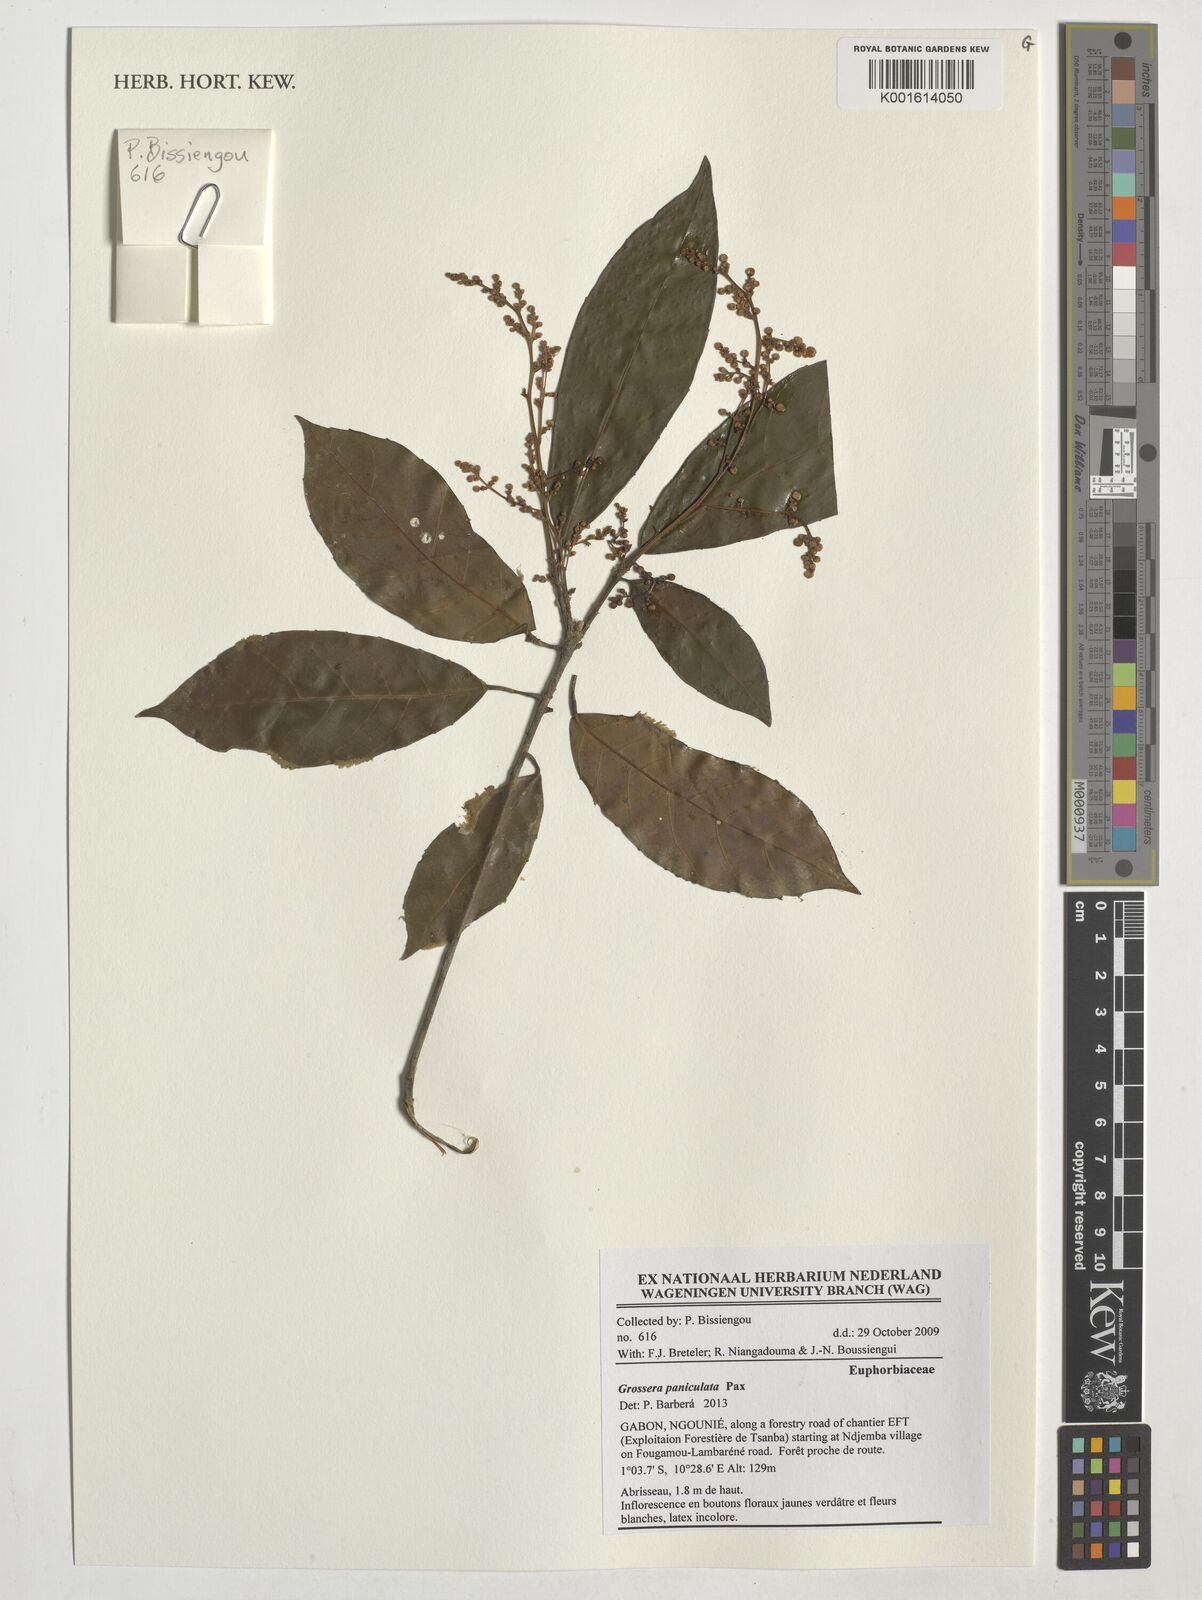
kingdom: Plantae
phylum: Tracheophyta
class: Magnoliopsida
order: Malpighiales
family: Euphorbiaceae
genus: Grossera
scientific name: Grossera paniculata
